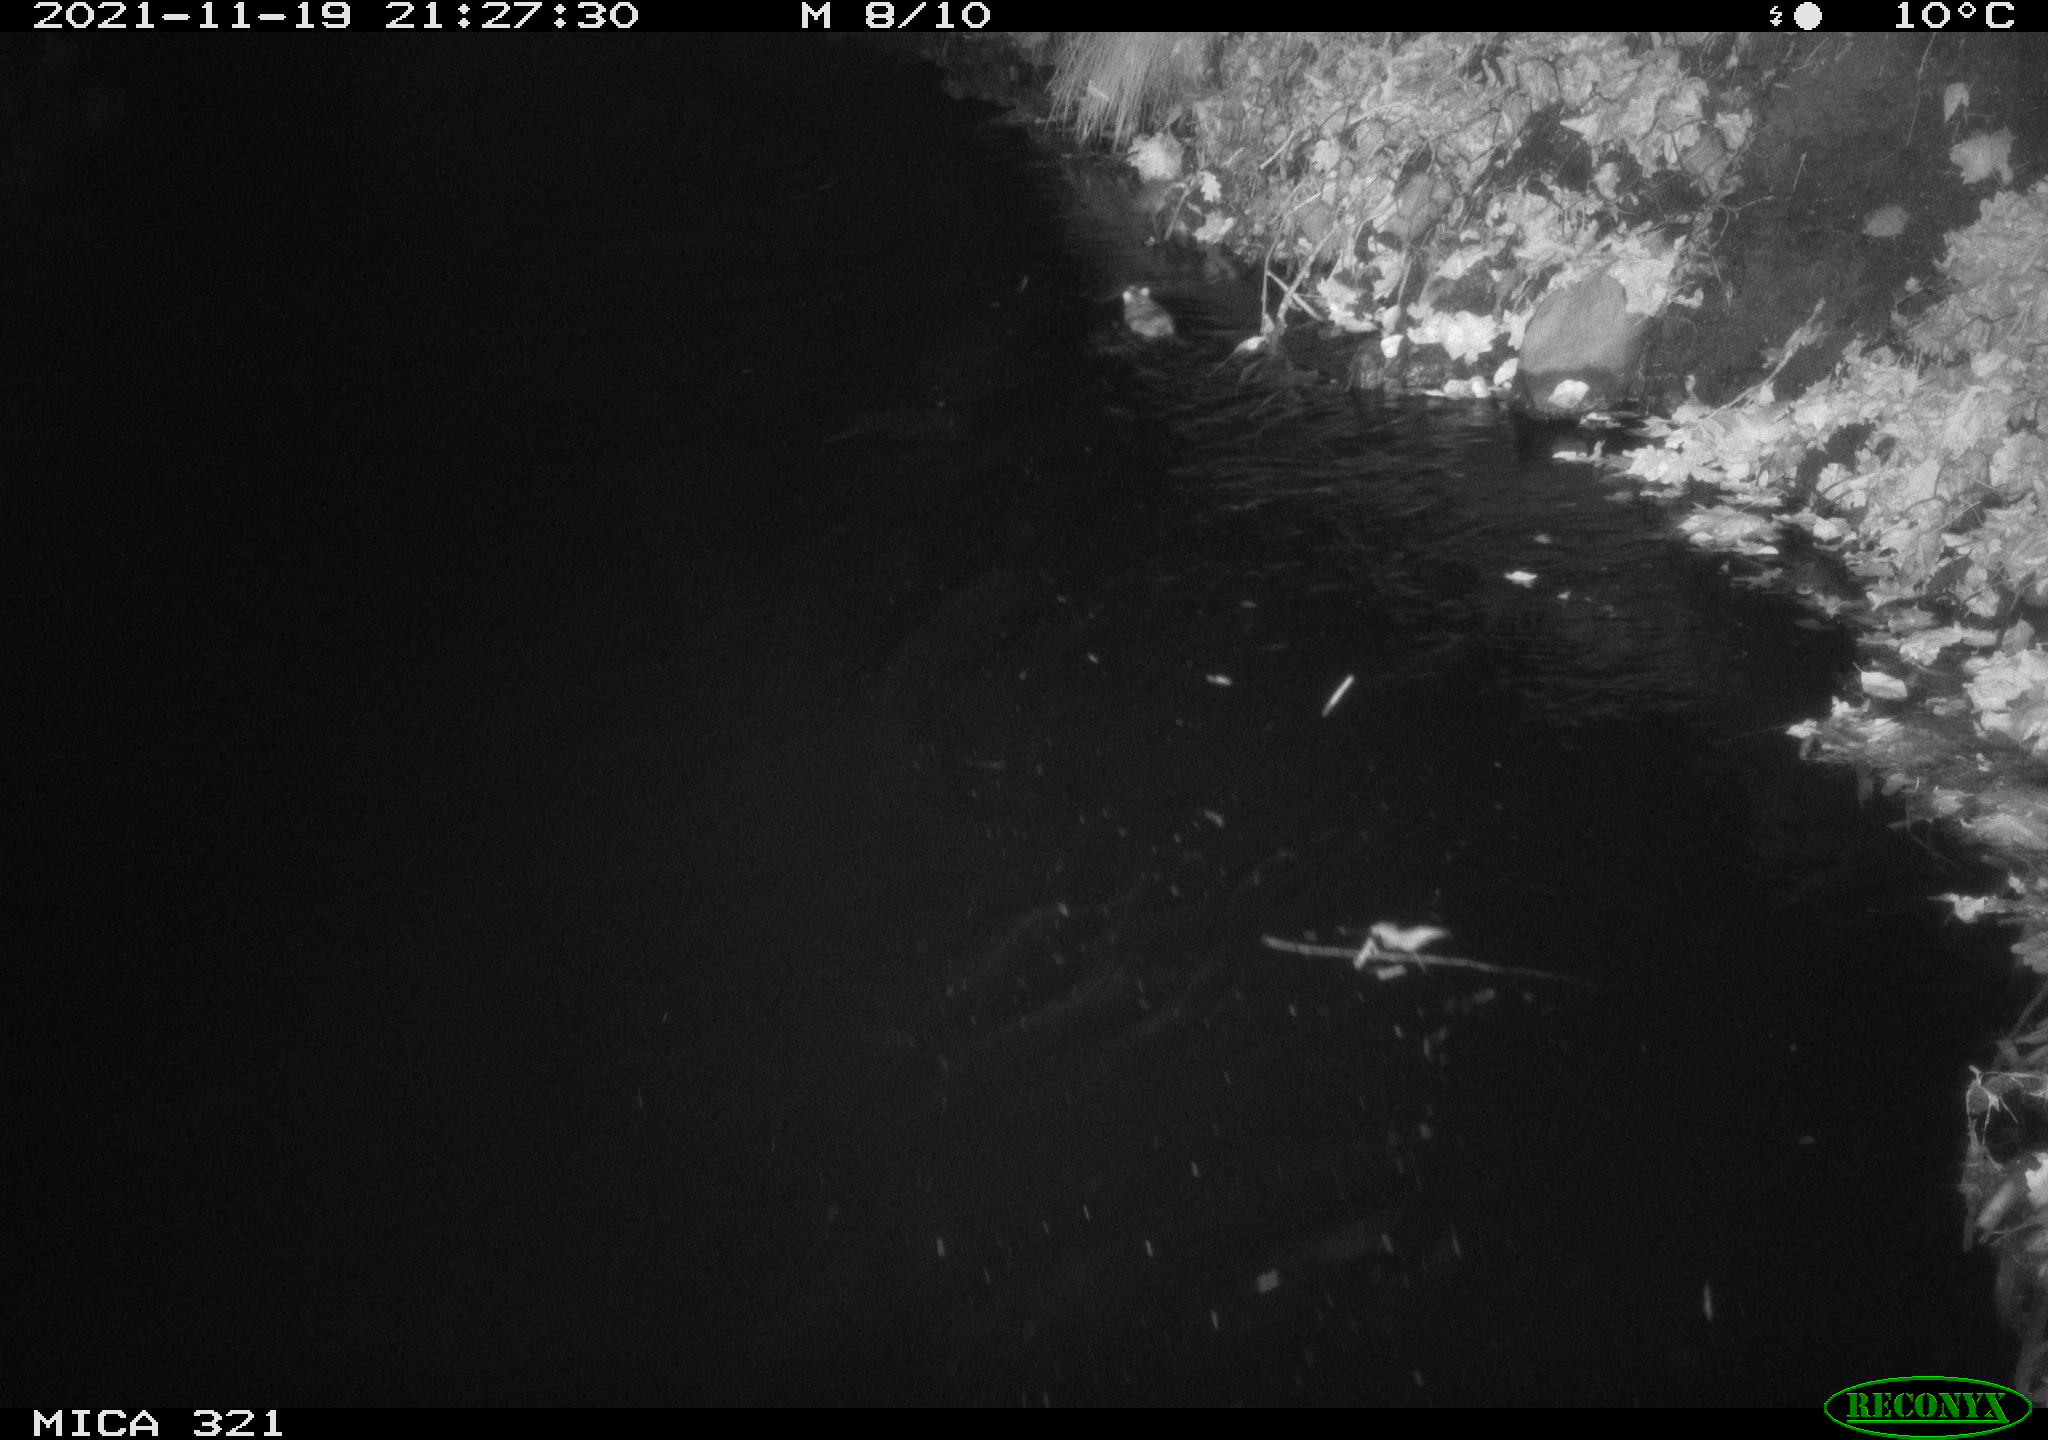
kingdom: Animalia
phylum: Chordata
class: Mammalia
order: Rodentia
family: Muridae
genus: Rattus
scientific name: Rattus norvegicus
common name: Brown rat
